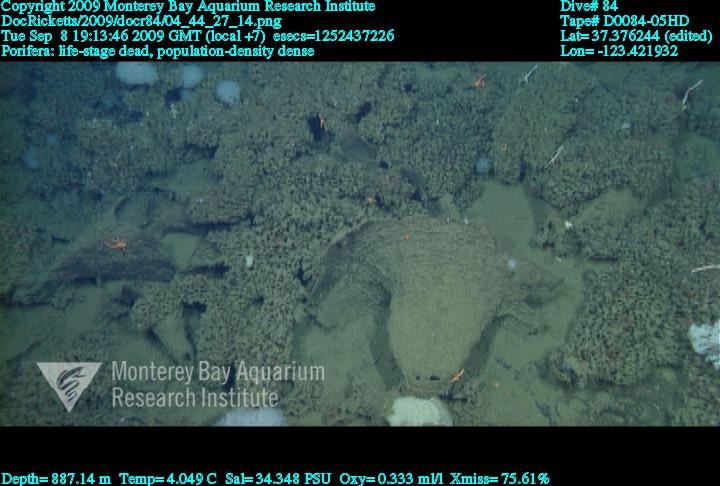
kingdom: Animalia
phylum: Porifera
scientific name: Porifera
